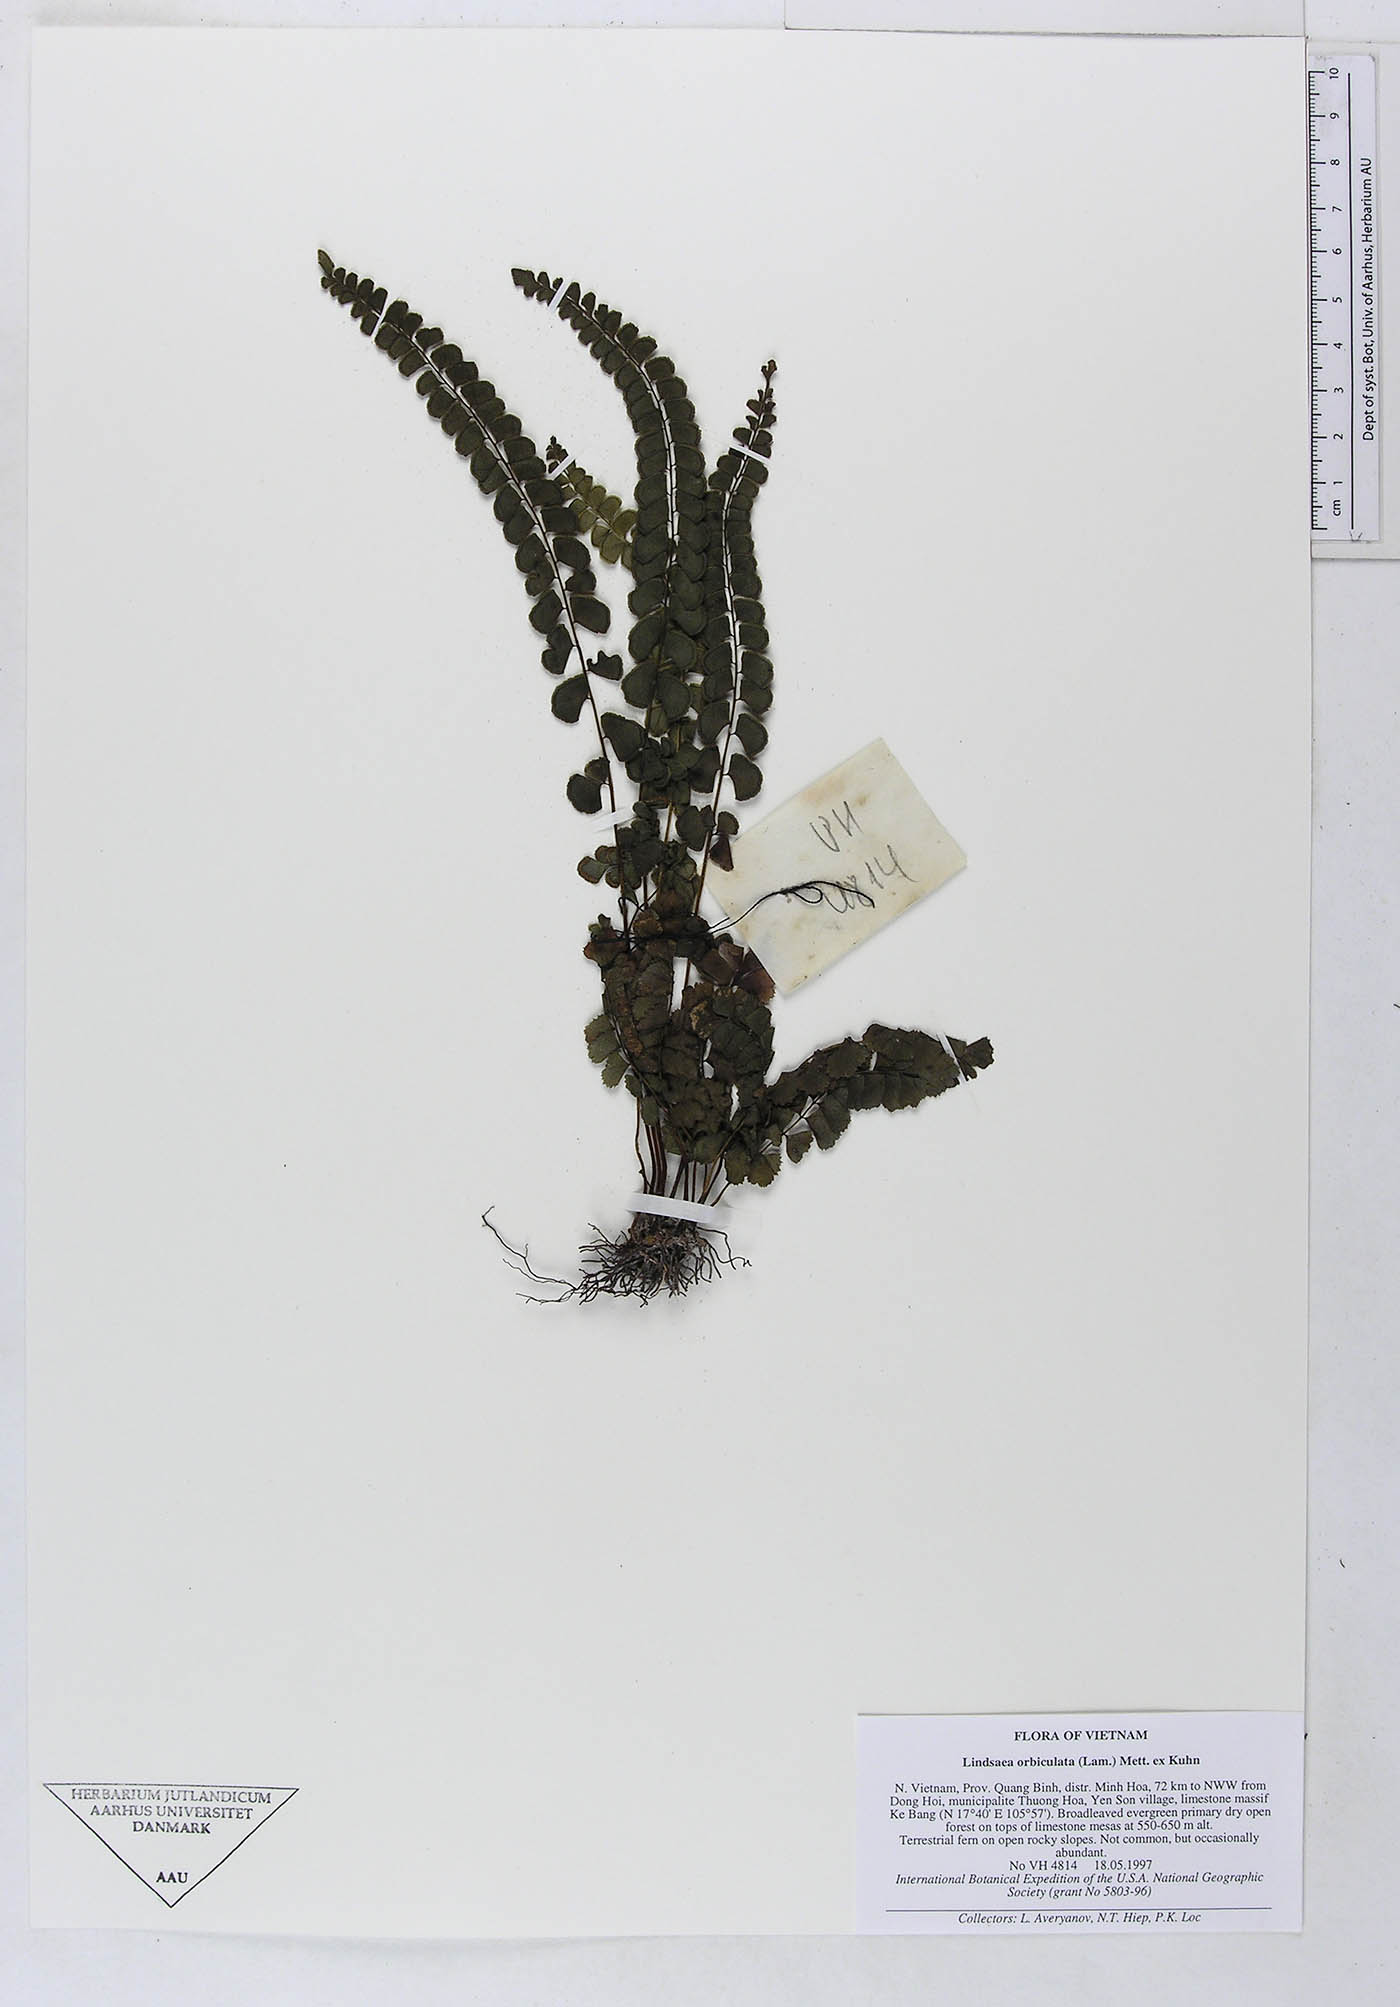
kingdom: Plantae
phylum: Tracheophyta
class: Polypodiopsida
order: Polypodiales
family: Lindsaeaceae
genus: Lindsaea
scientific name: Lindsaea orbiculata
